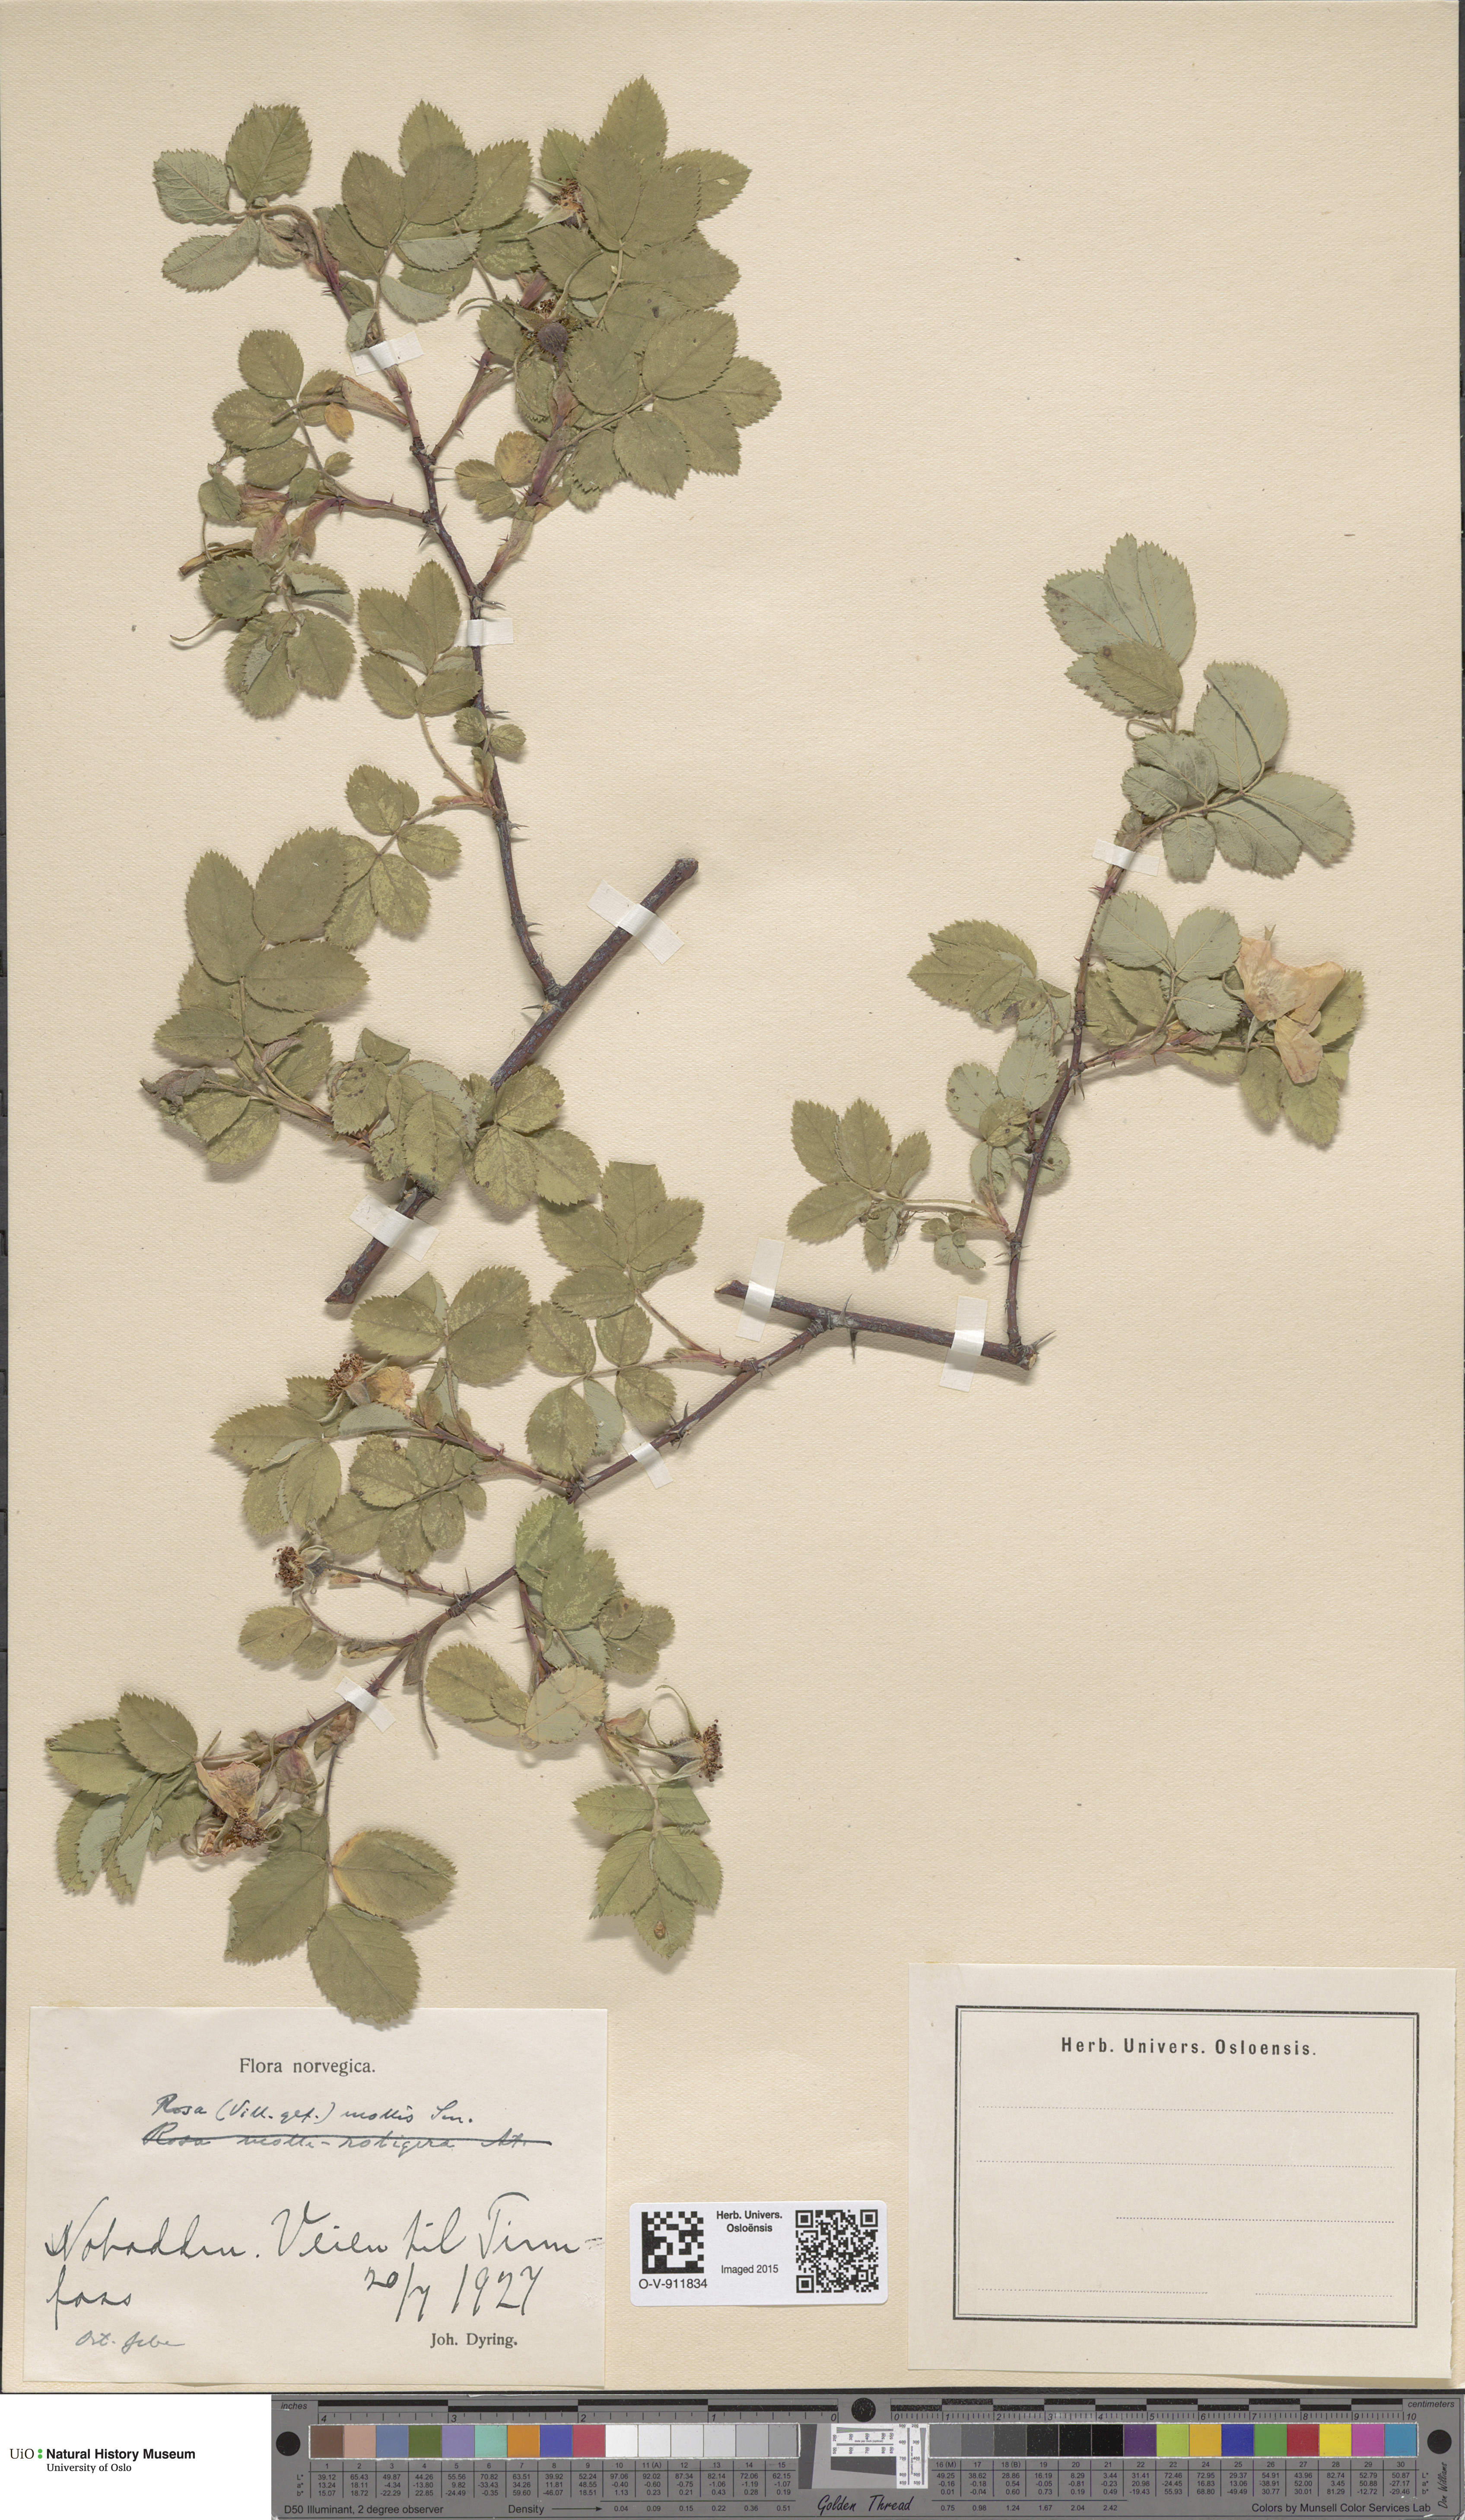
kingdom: Plantae
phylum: Tracheophyta
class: Magnoliopsida
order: Rosales
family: Rosaceae
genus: Rosa
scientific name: Rosa mollis
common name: Rose
